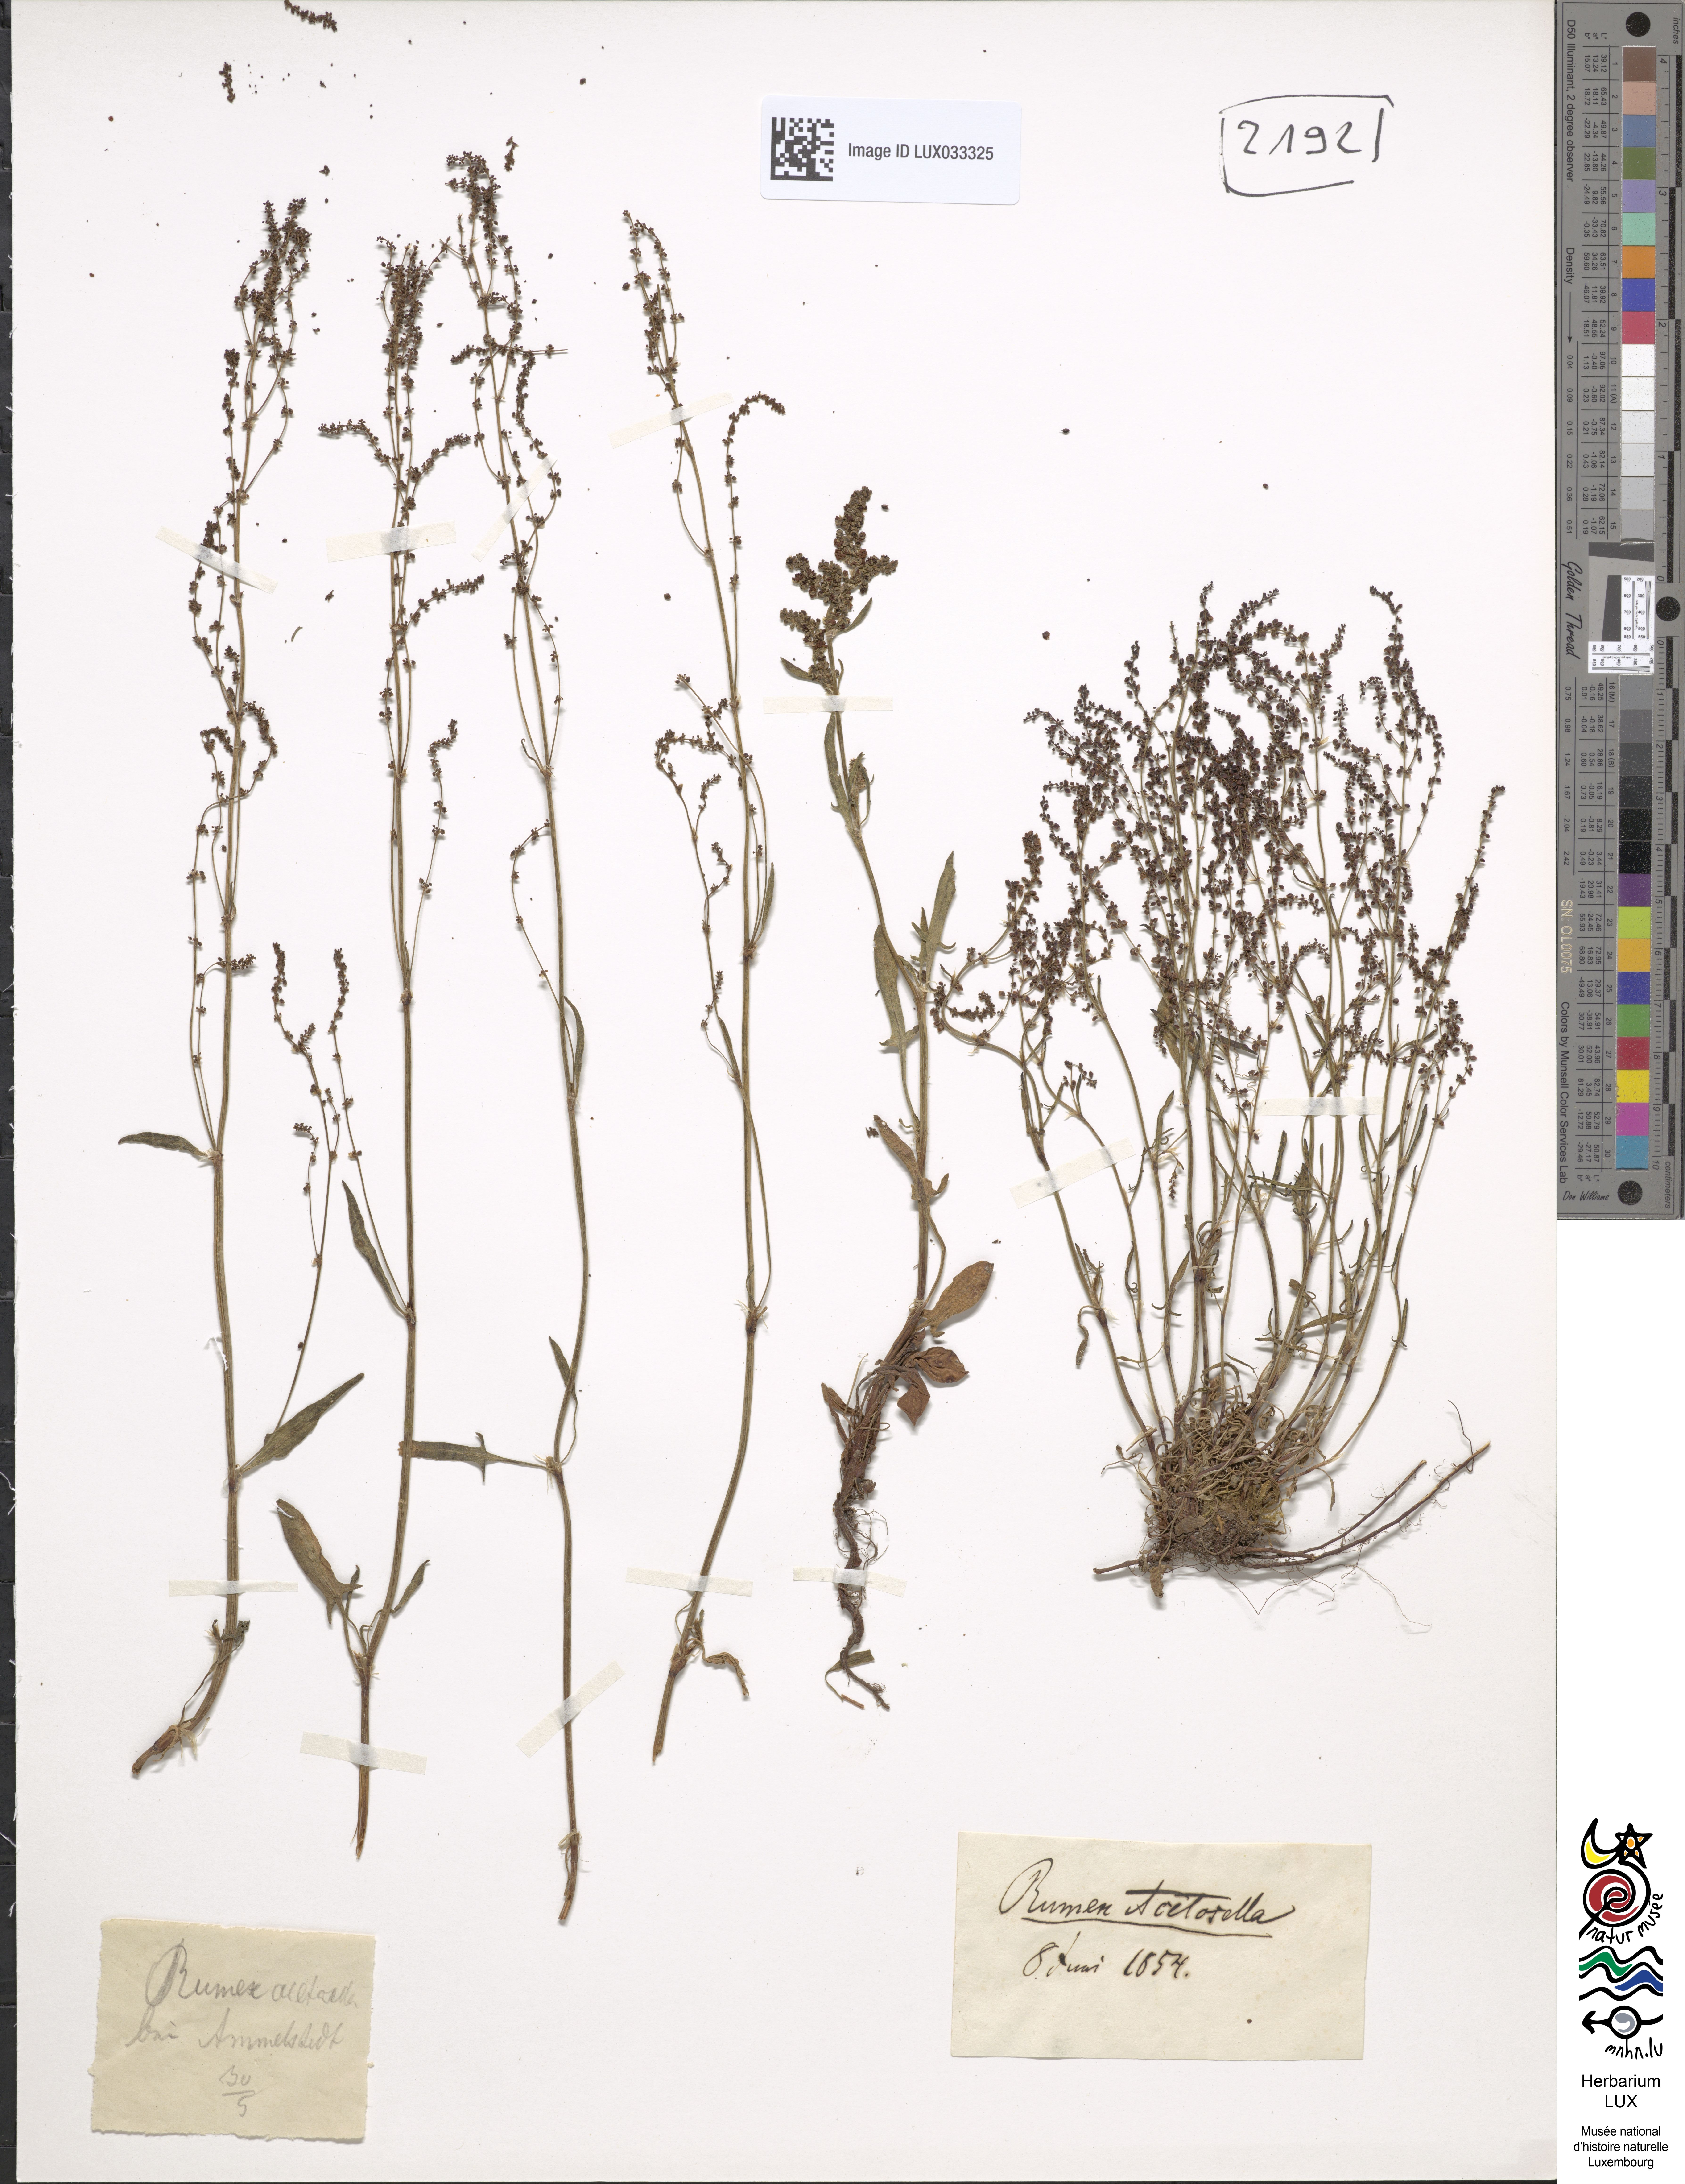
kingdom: Plantae
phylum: Tracheophyta
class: Magnoliopsida
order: Caryophyllales
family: Polygonaceae
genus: Rumex
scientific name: Rumex acetosella
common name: Common sheep sorrel
